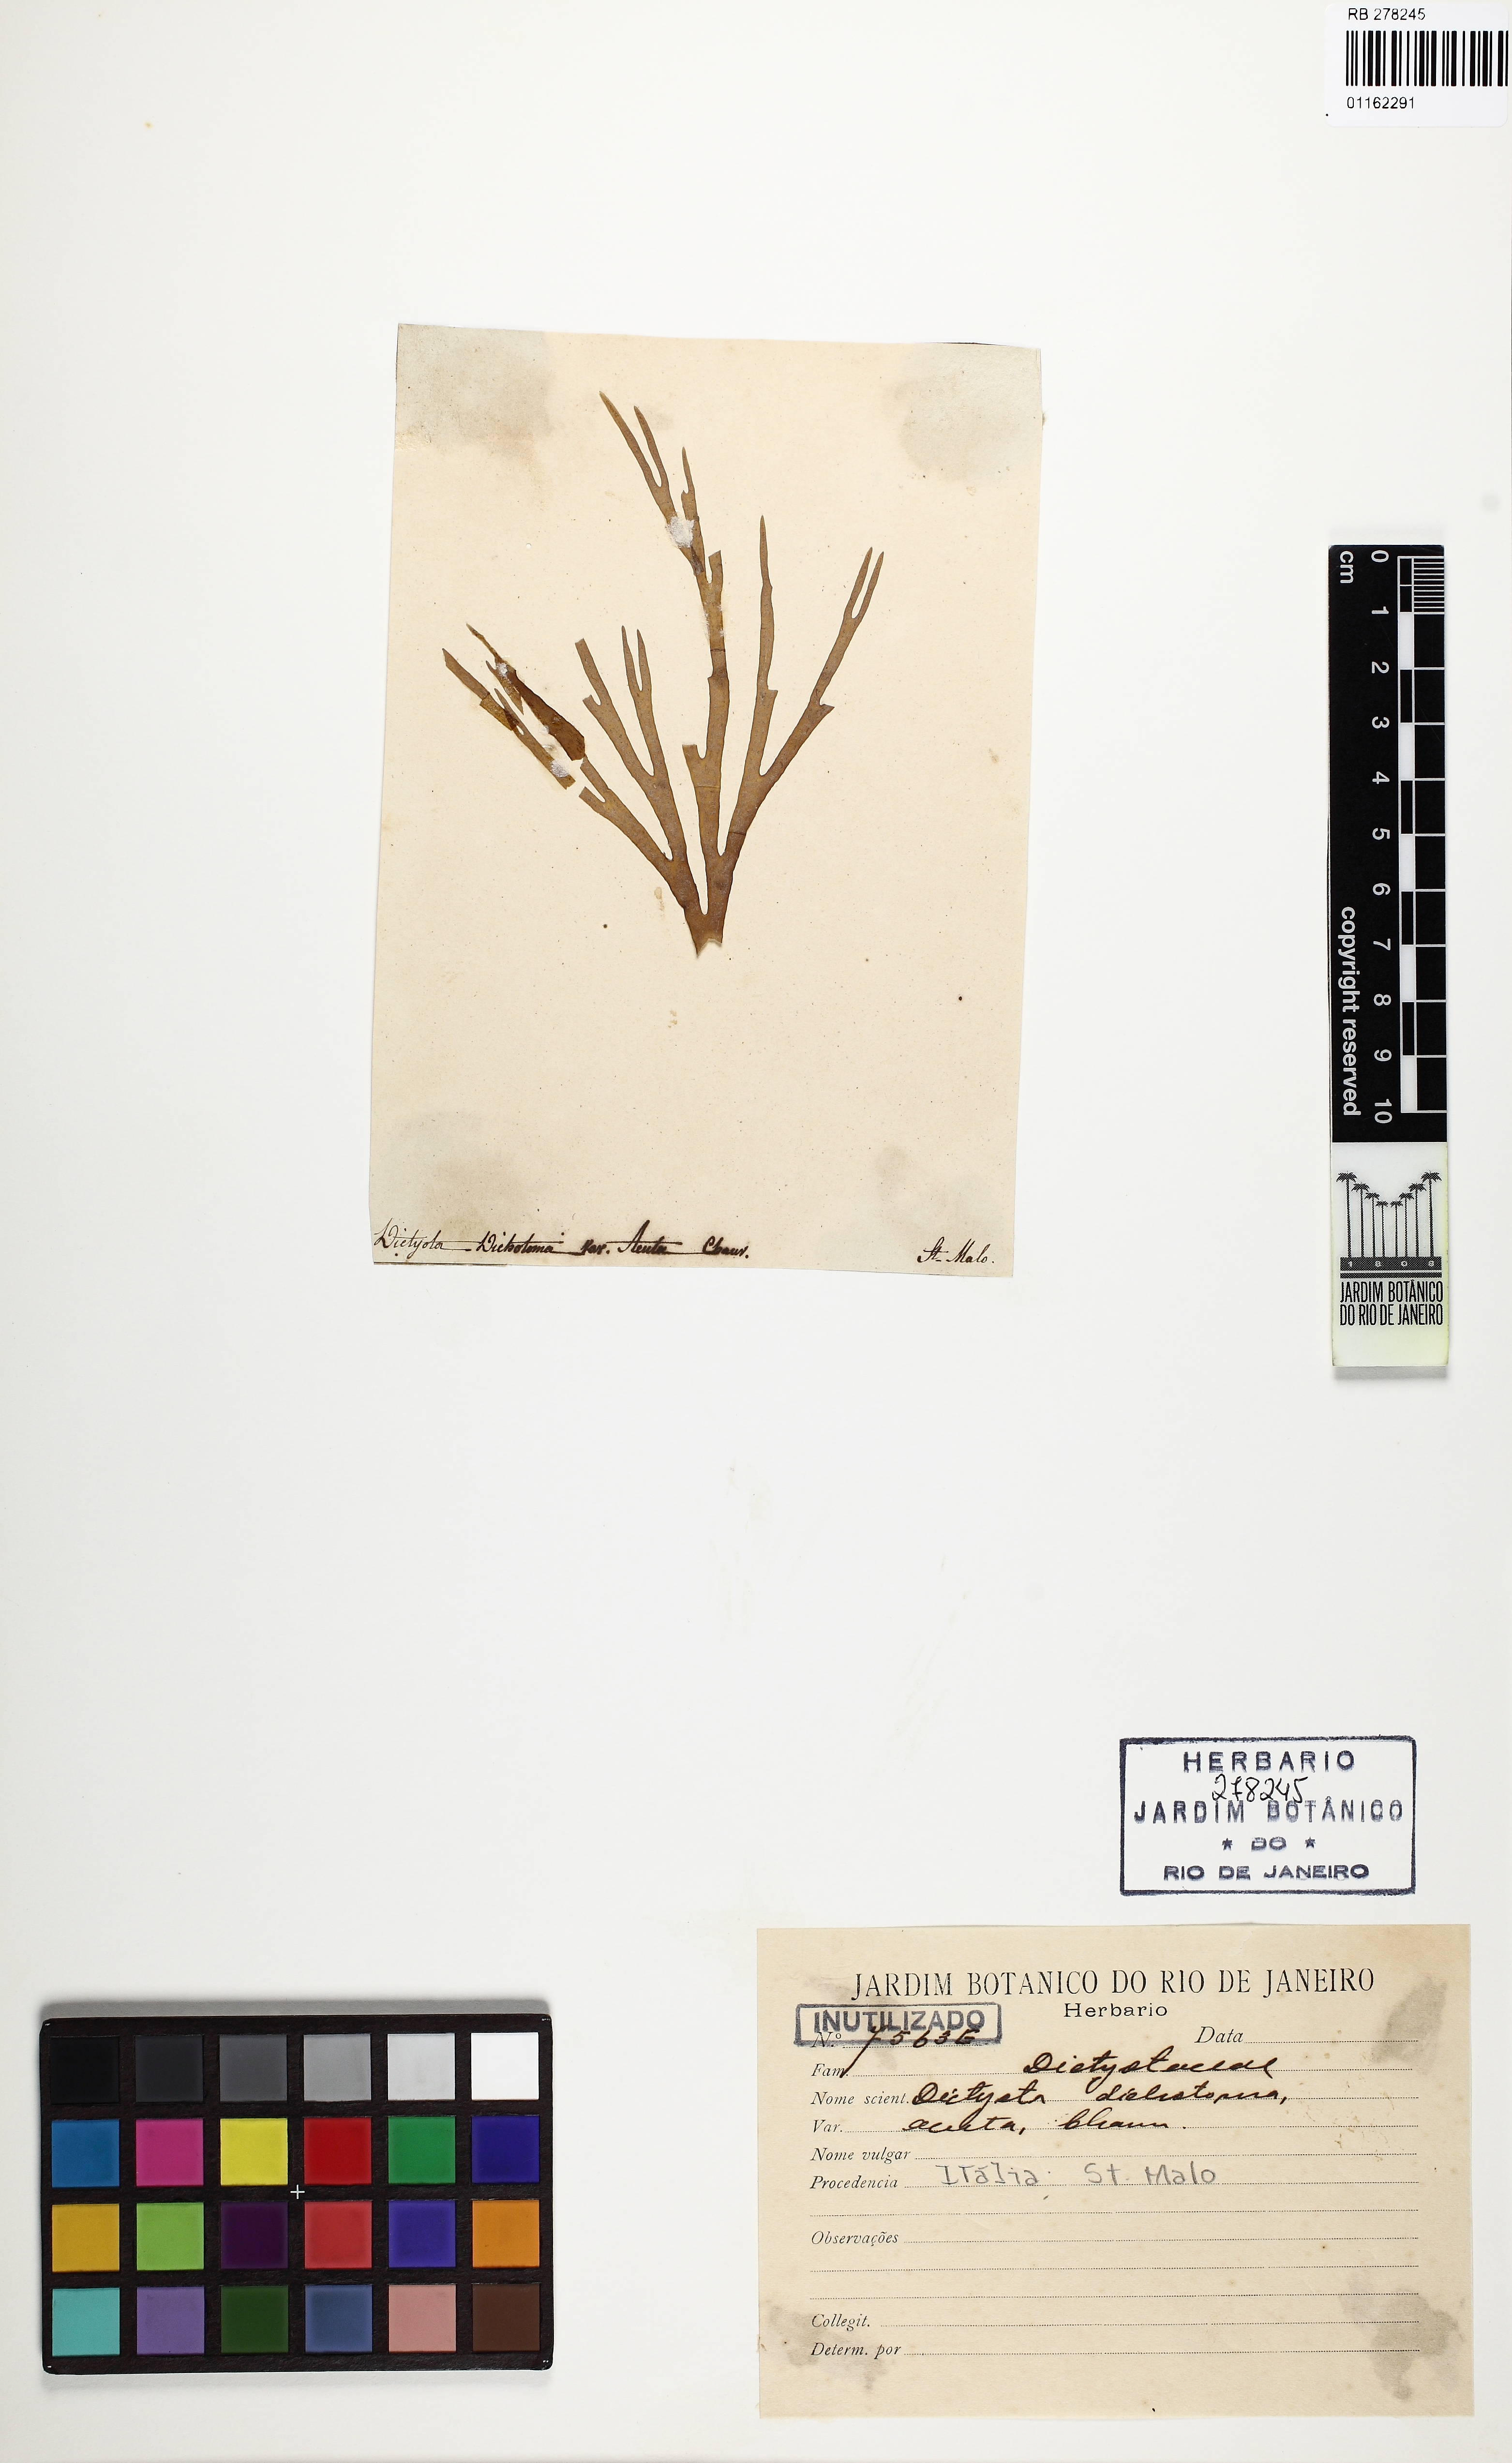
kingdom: Chromista
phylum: Ochrophyta
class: Phaeophyceae
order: Dictyotales
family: Dictyotaceae
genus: Dictyota
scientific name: Dictyota dichotoma
